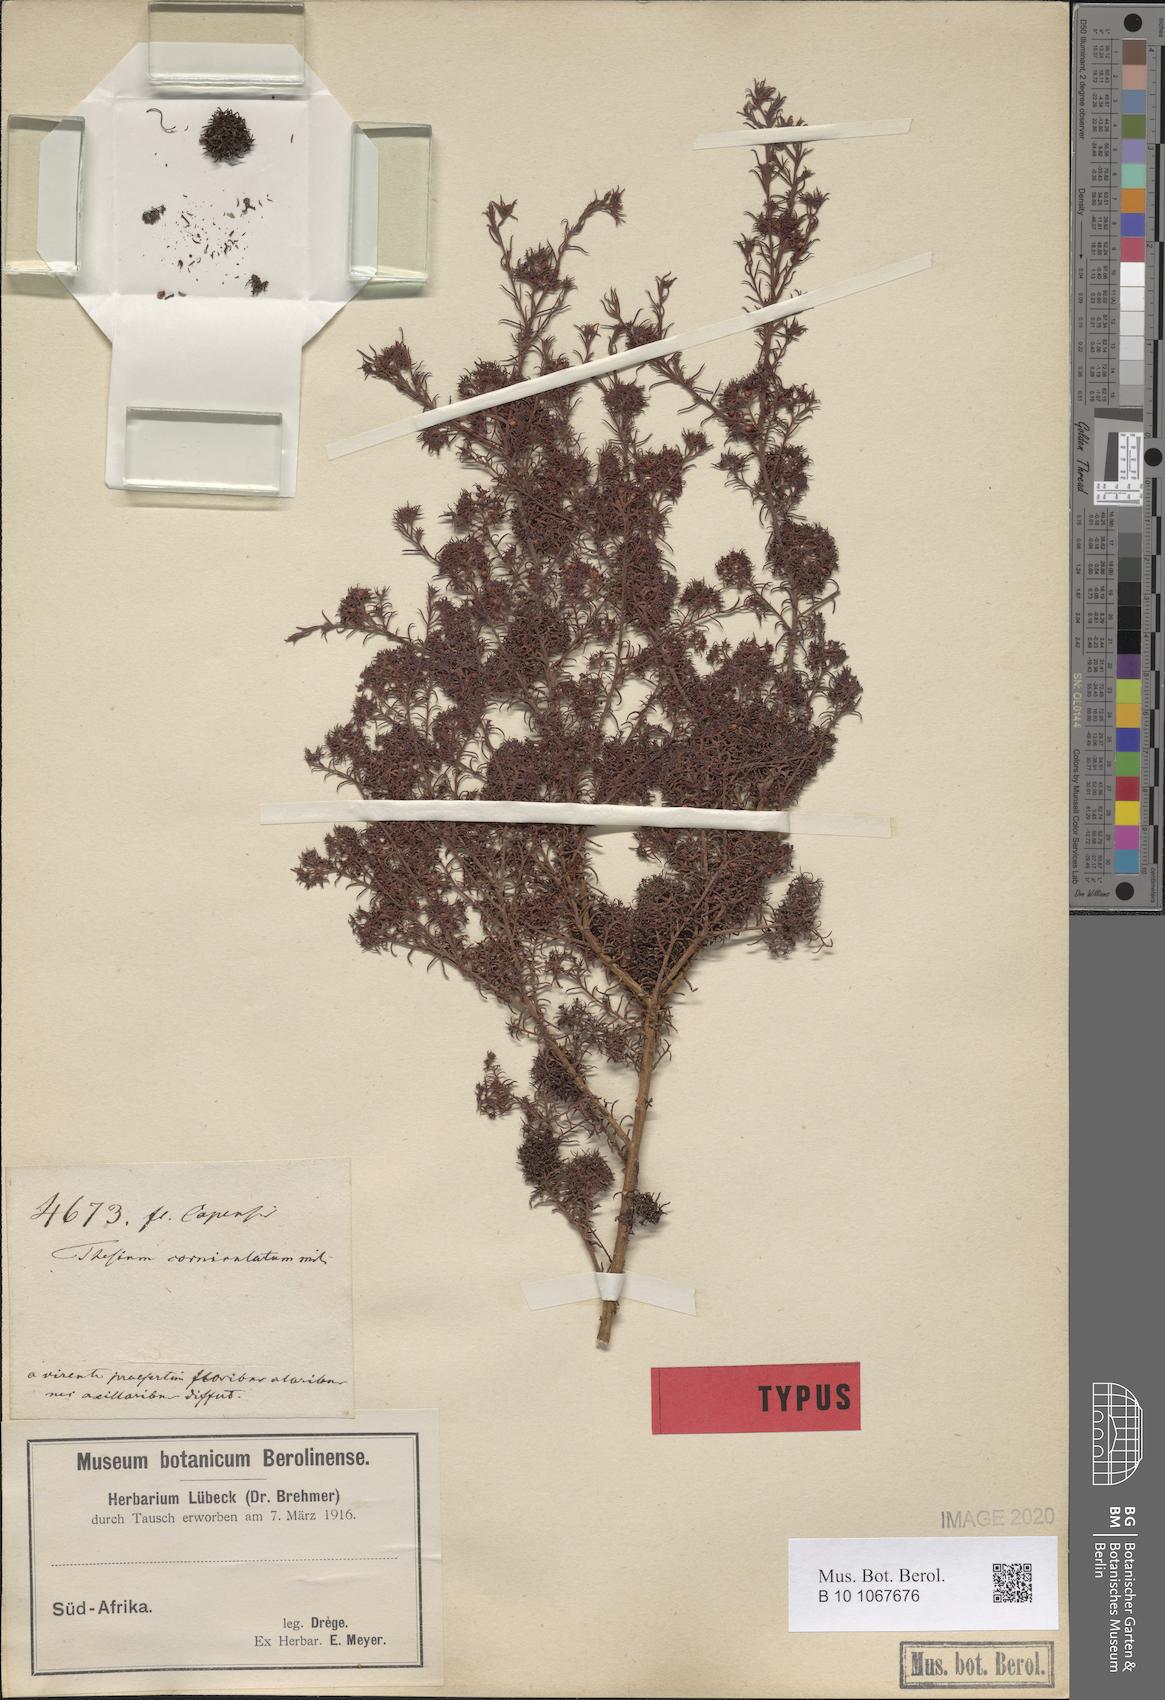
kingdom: Plantae
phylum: Tracheophyta
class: Magnoliopsida
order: Santalales
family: Thesiaceae
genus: Thesium
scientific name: Thesium squarrosum
